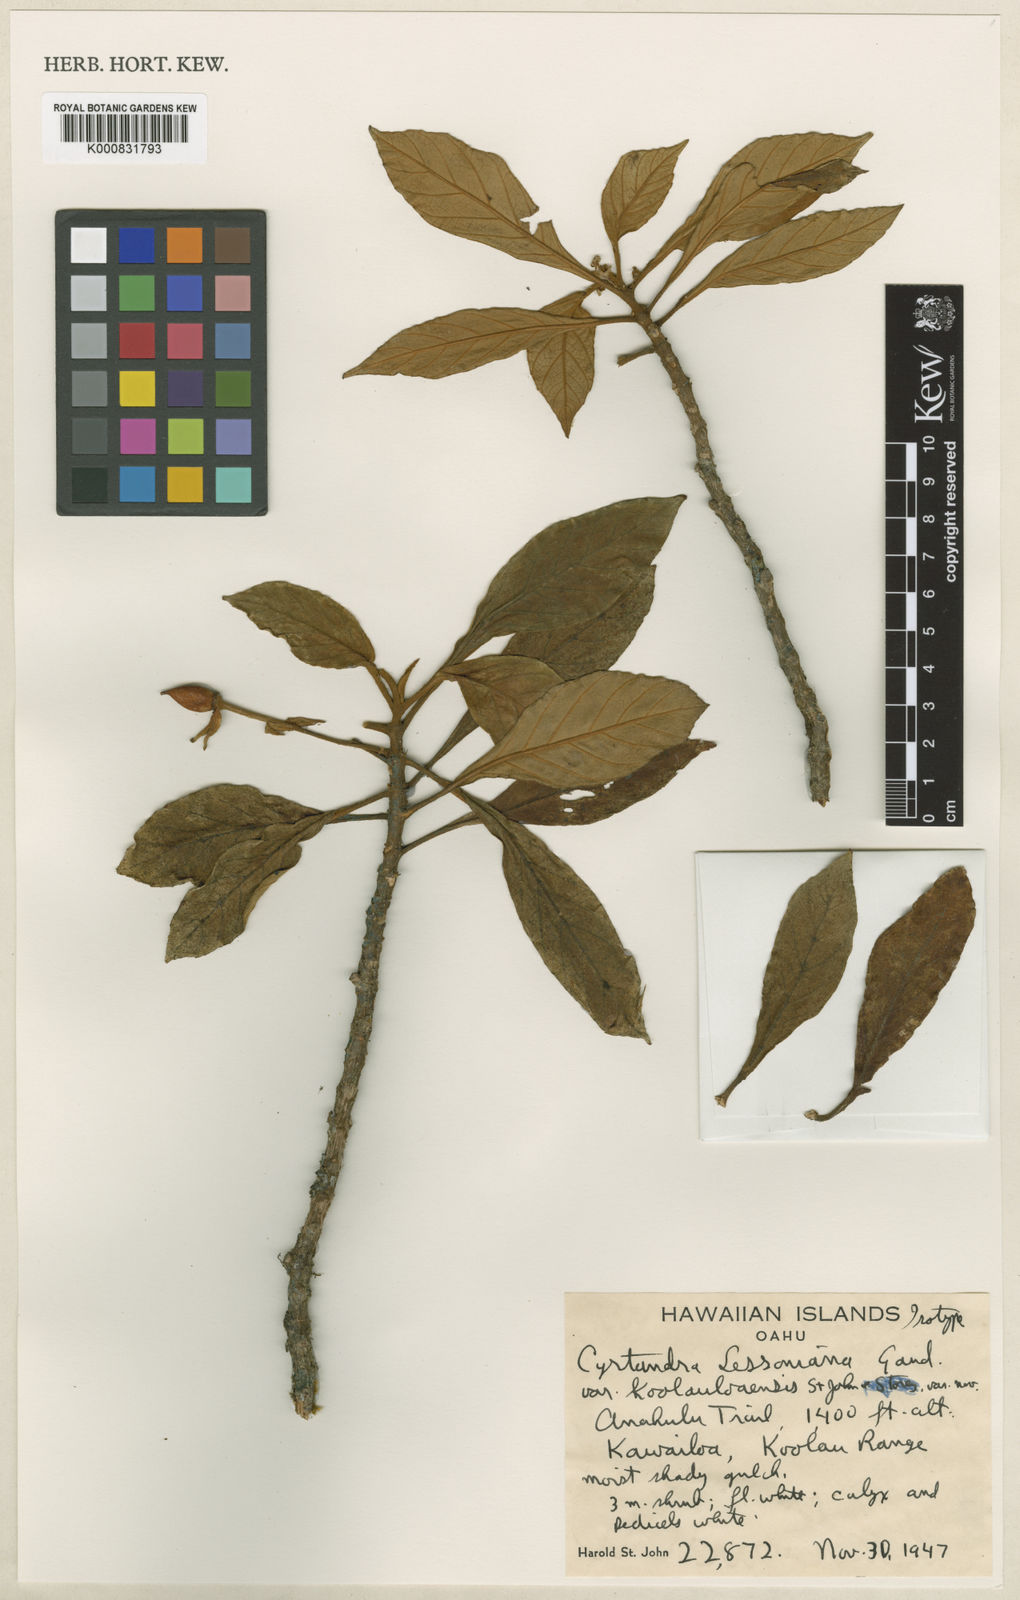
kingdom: Plantae
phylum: Tracheophyta
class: Magnoliopsida
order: Lamiales
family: Gesneriaceae
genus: Cyrtandra
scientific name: Cyrtandra lessoniana
